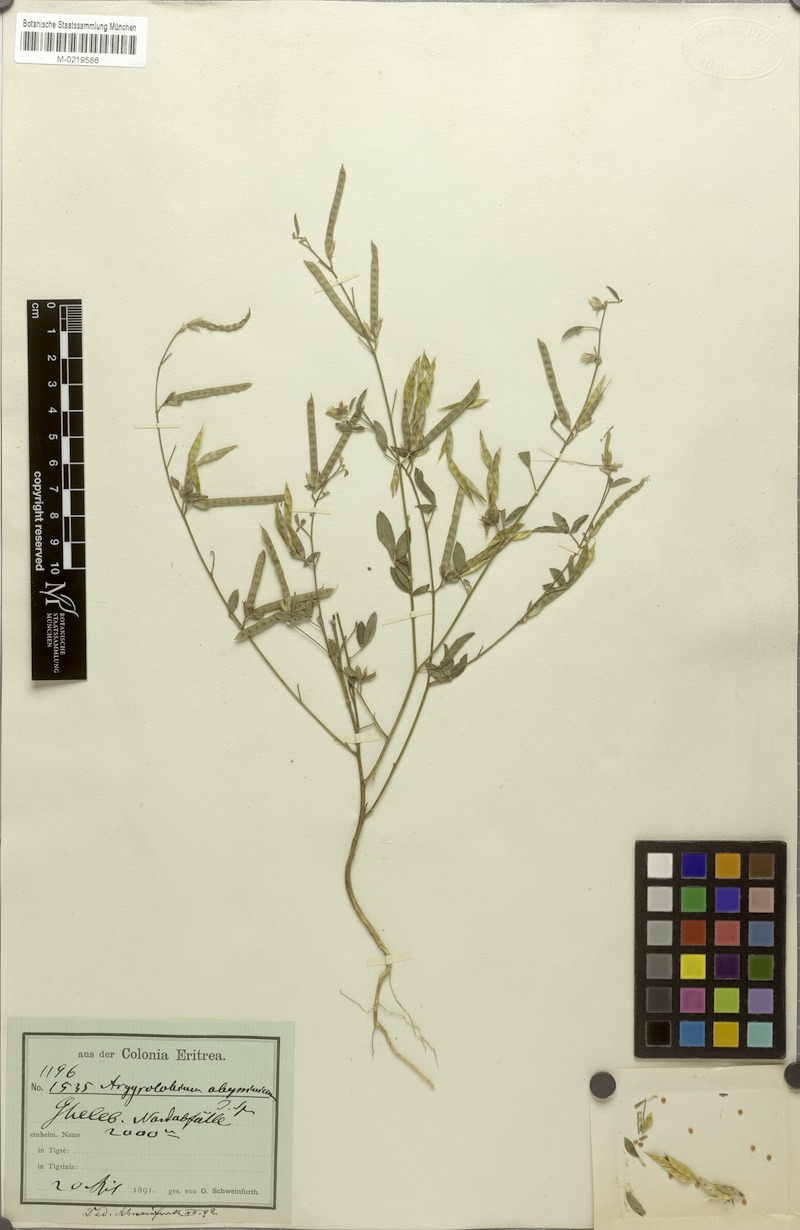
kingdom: Plantae
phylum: Tracheophyta
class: Magnoliopsida
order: Fabales
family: Fabaceae
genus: Argyrolobium
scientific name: Argyrolobium arabicum
